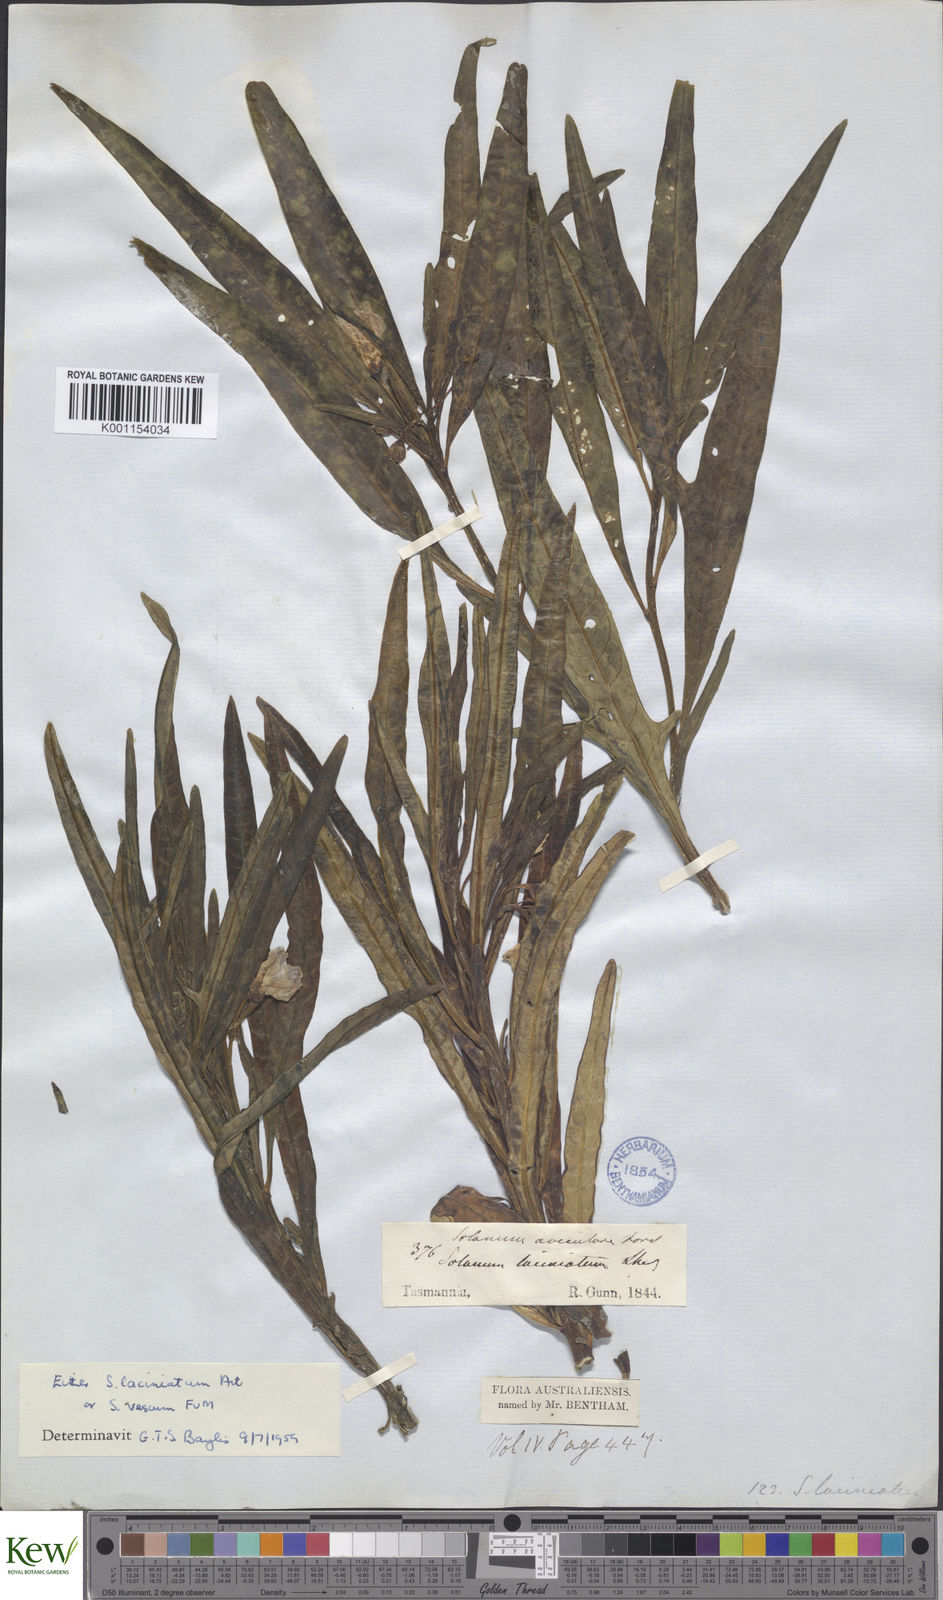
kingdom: Plantae
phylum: Tracheophyta
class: Magnoliopsida
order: Solanales
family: Solanaceae
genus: Solanum
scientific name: Solanum laciniatum
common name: Kangaroo-apple
